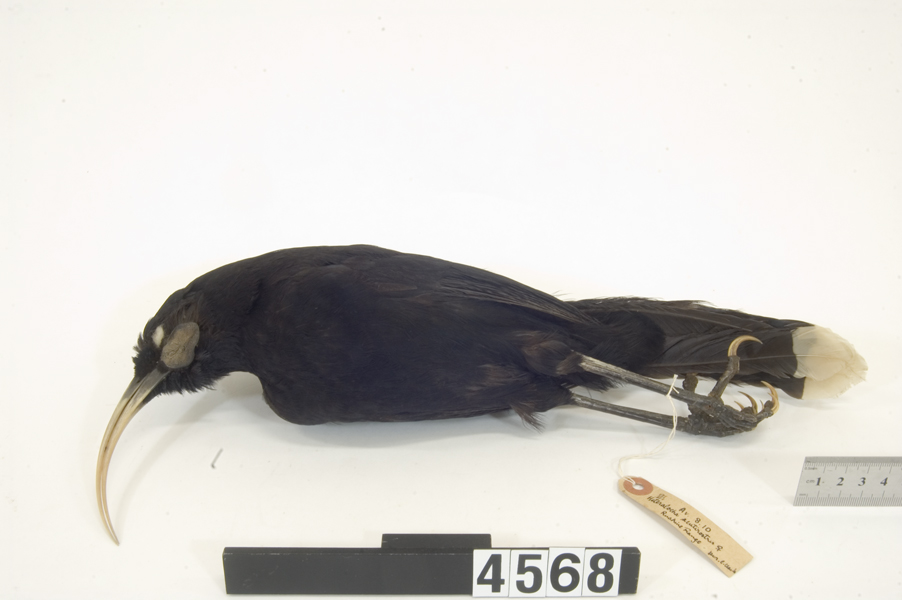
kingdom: Animalia
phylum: Chordata
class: Aves
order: Passeriformes
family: Callaeatidae
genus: Heteralocha
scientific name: Heteralocha acutirostris
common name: Huia
